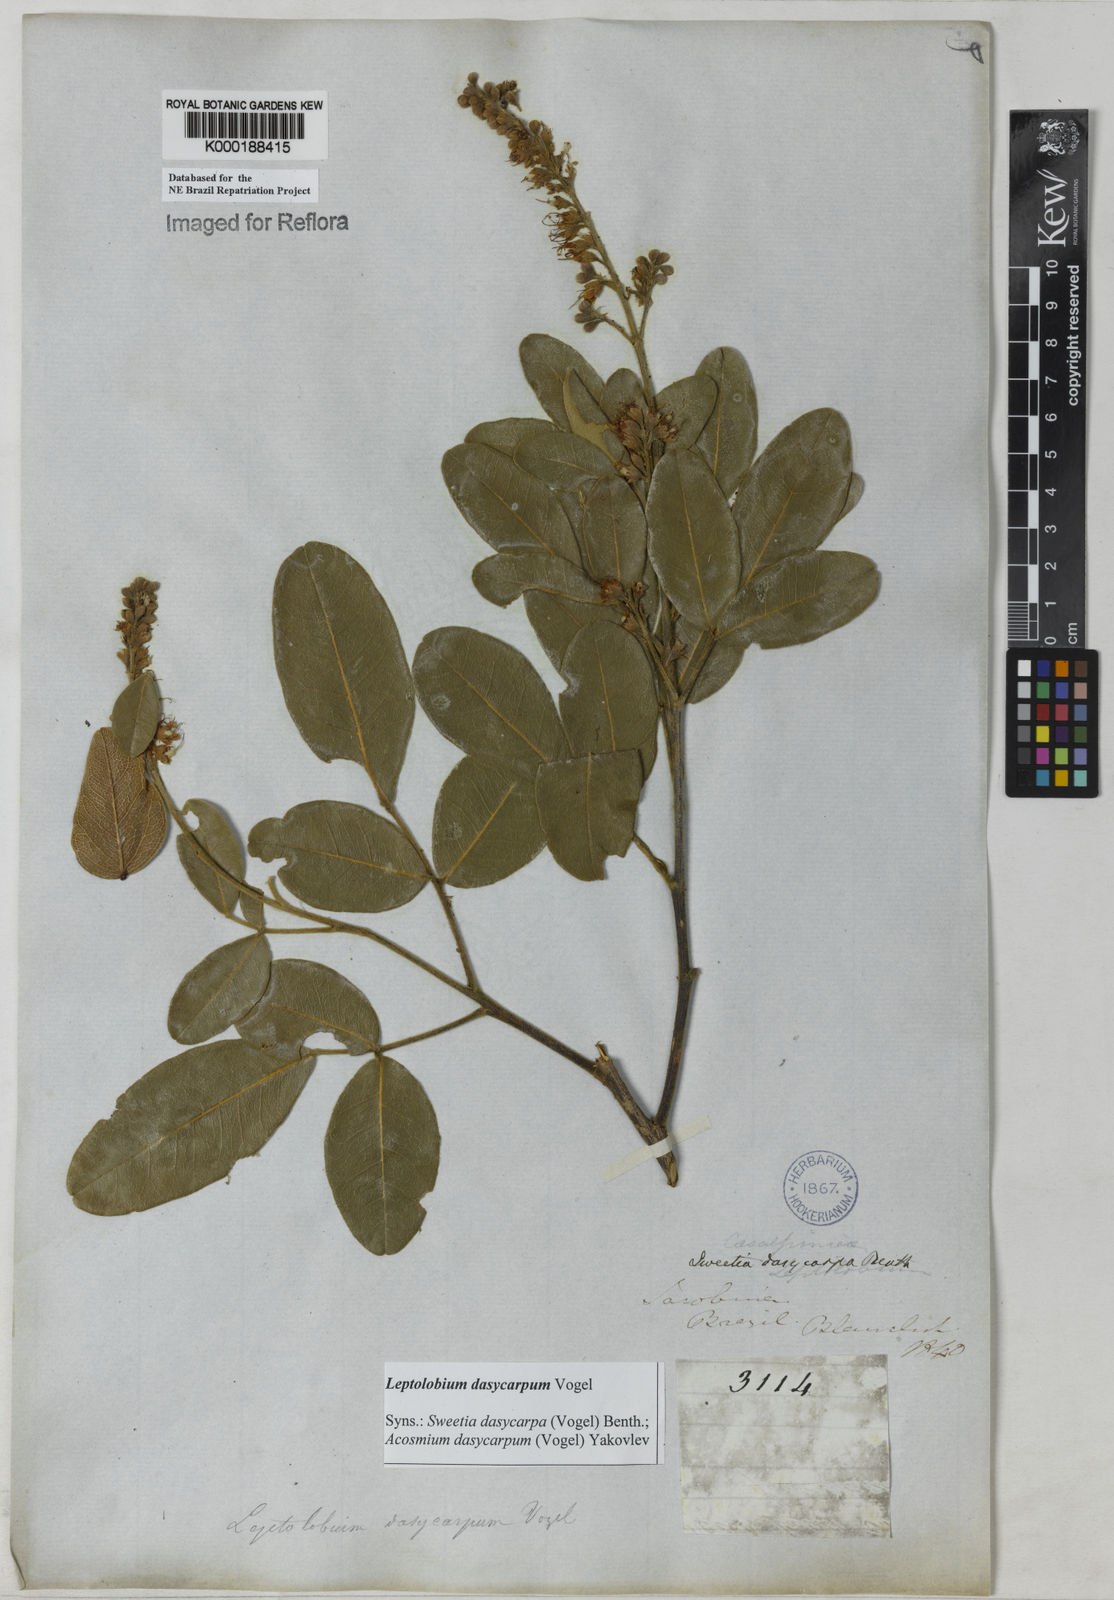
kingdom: Plantae
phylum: Tracheophyta
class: Magnoliopsida
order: Fabales
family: Fabaceae
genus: Leptolobium
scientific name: Leptolobium dasycarpum
